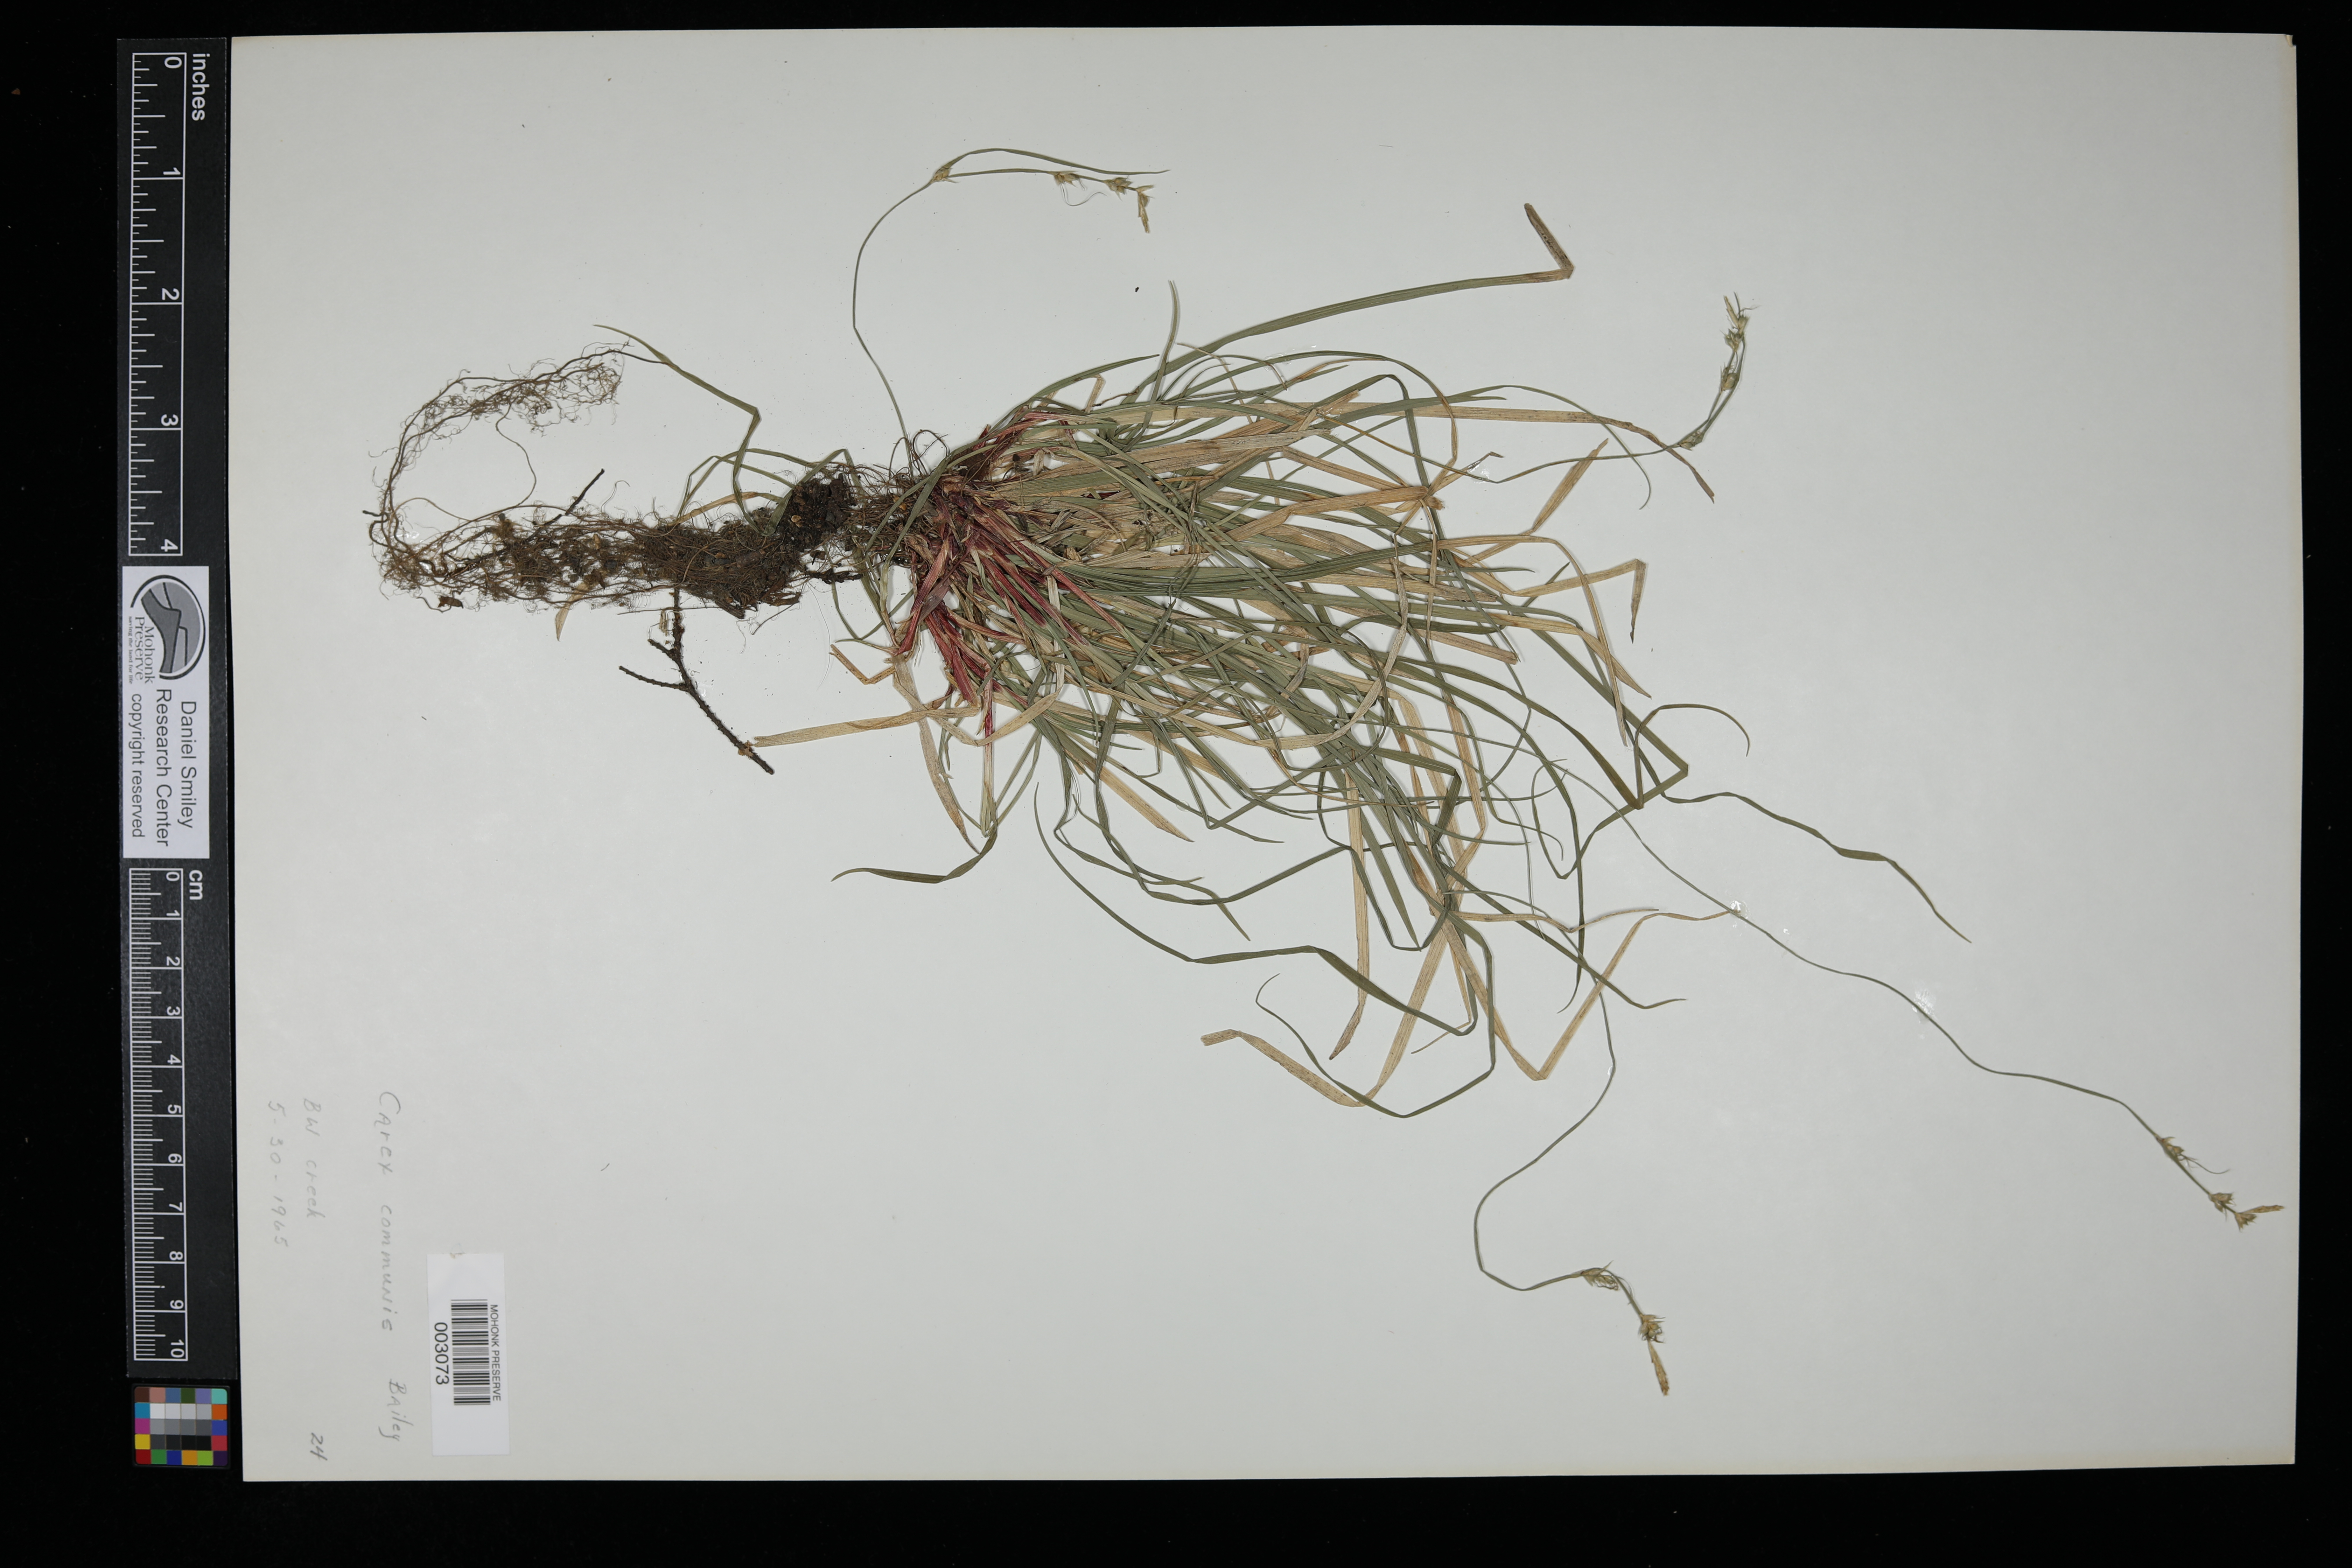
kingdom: Plantae
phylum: Tracheophyta
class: Liliopsida
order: Poales
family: Cyperaceae
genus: Carex
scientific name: Carex communis
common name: Colonial oak sedge
